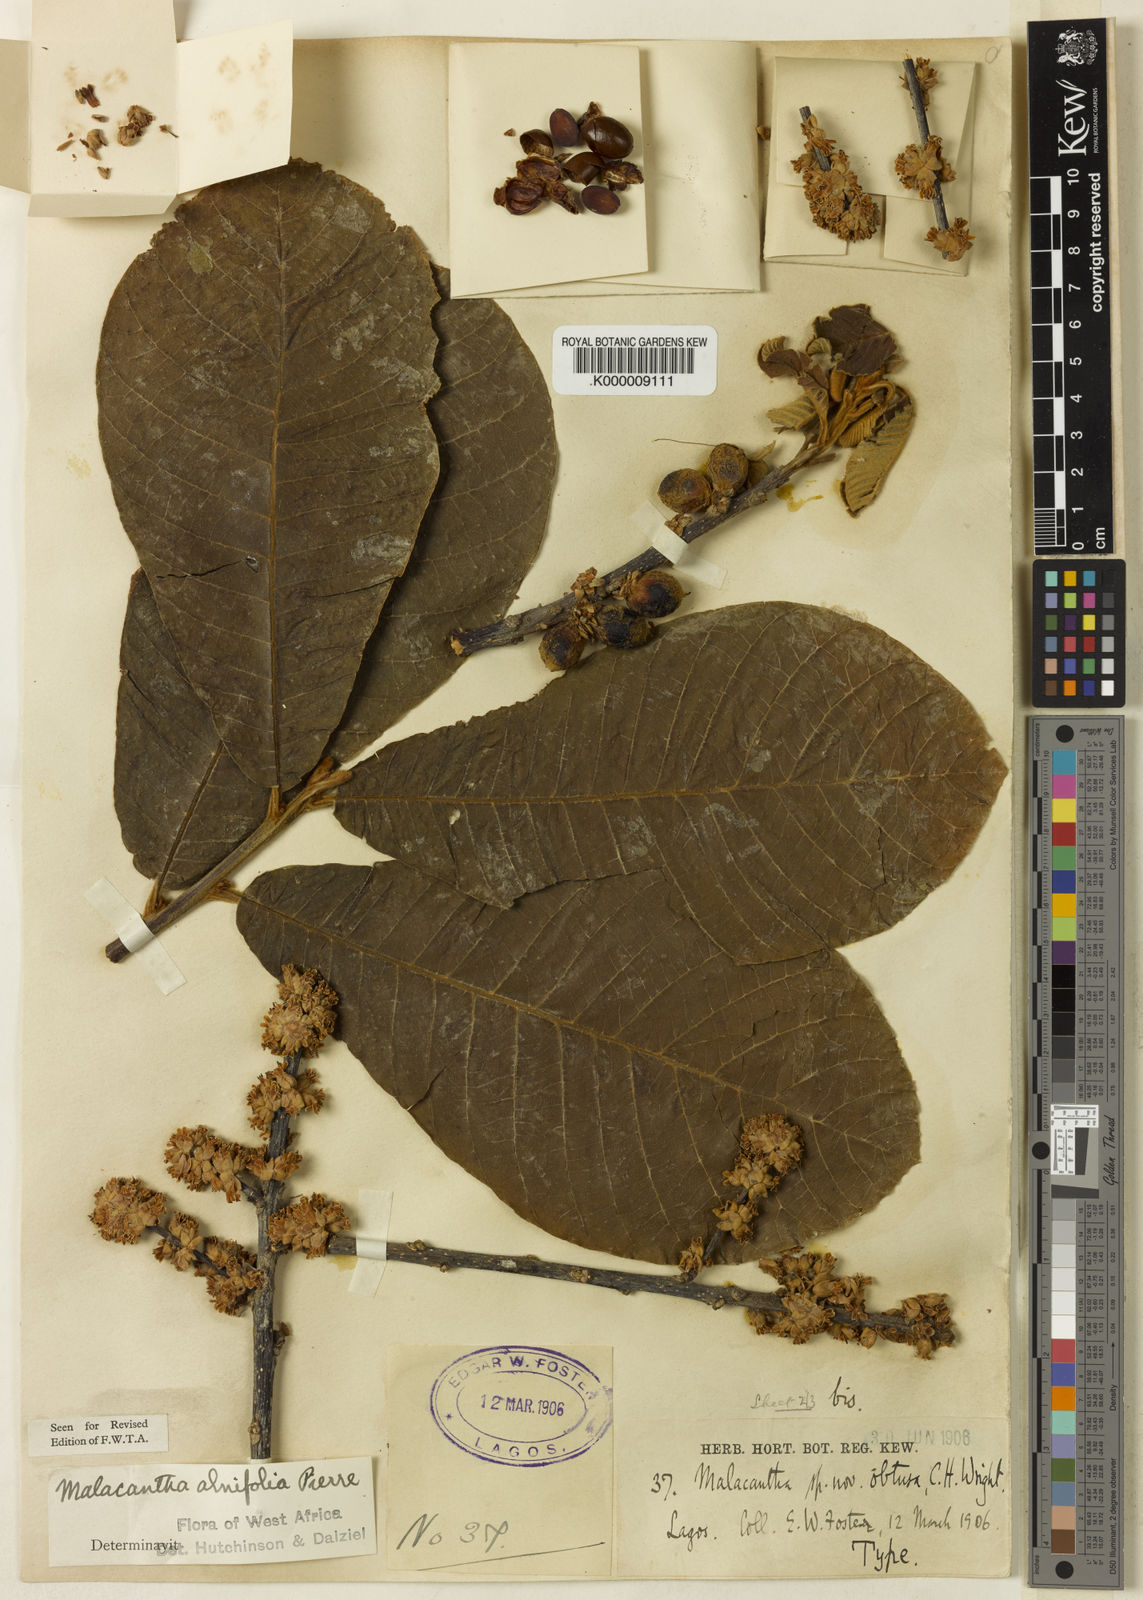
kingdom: Plantae
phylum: Tracheophyta
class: Magnoliopsida
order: Ericales
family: Sapotaceae
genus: Malacantha
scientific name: Malacantha alnifolia
